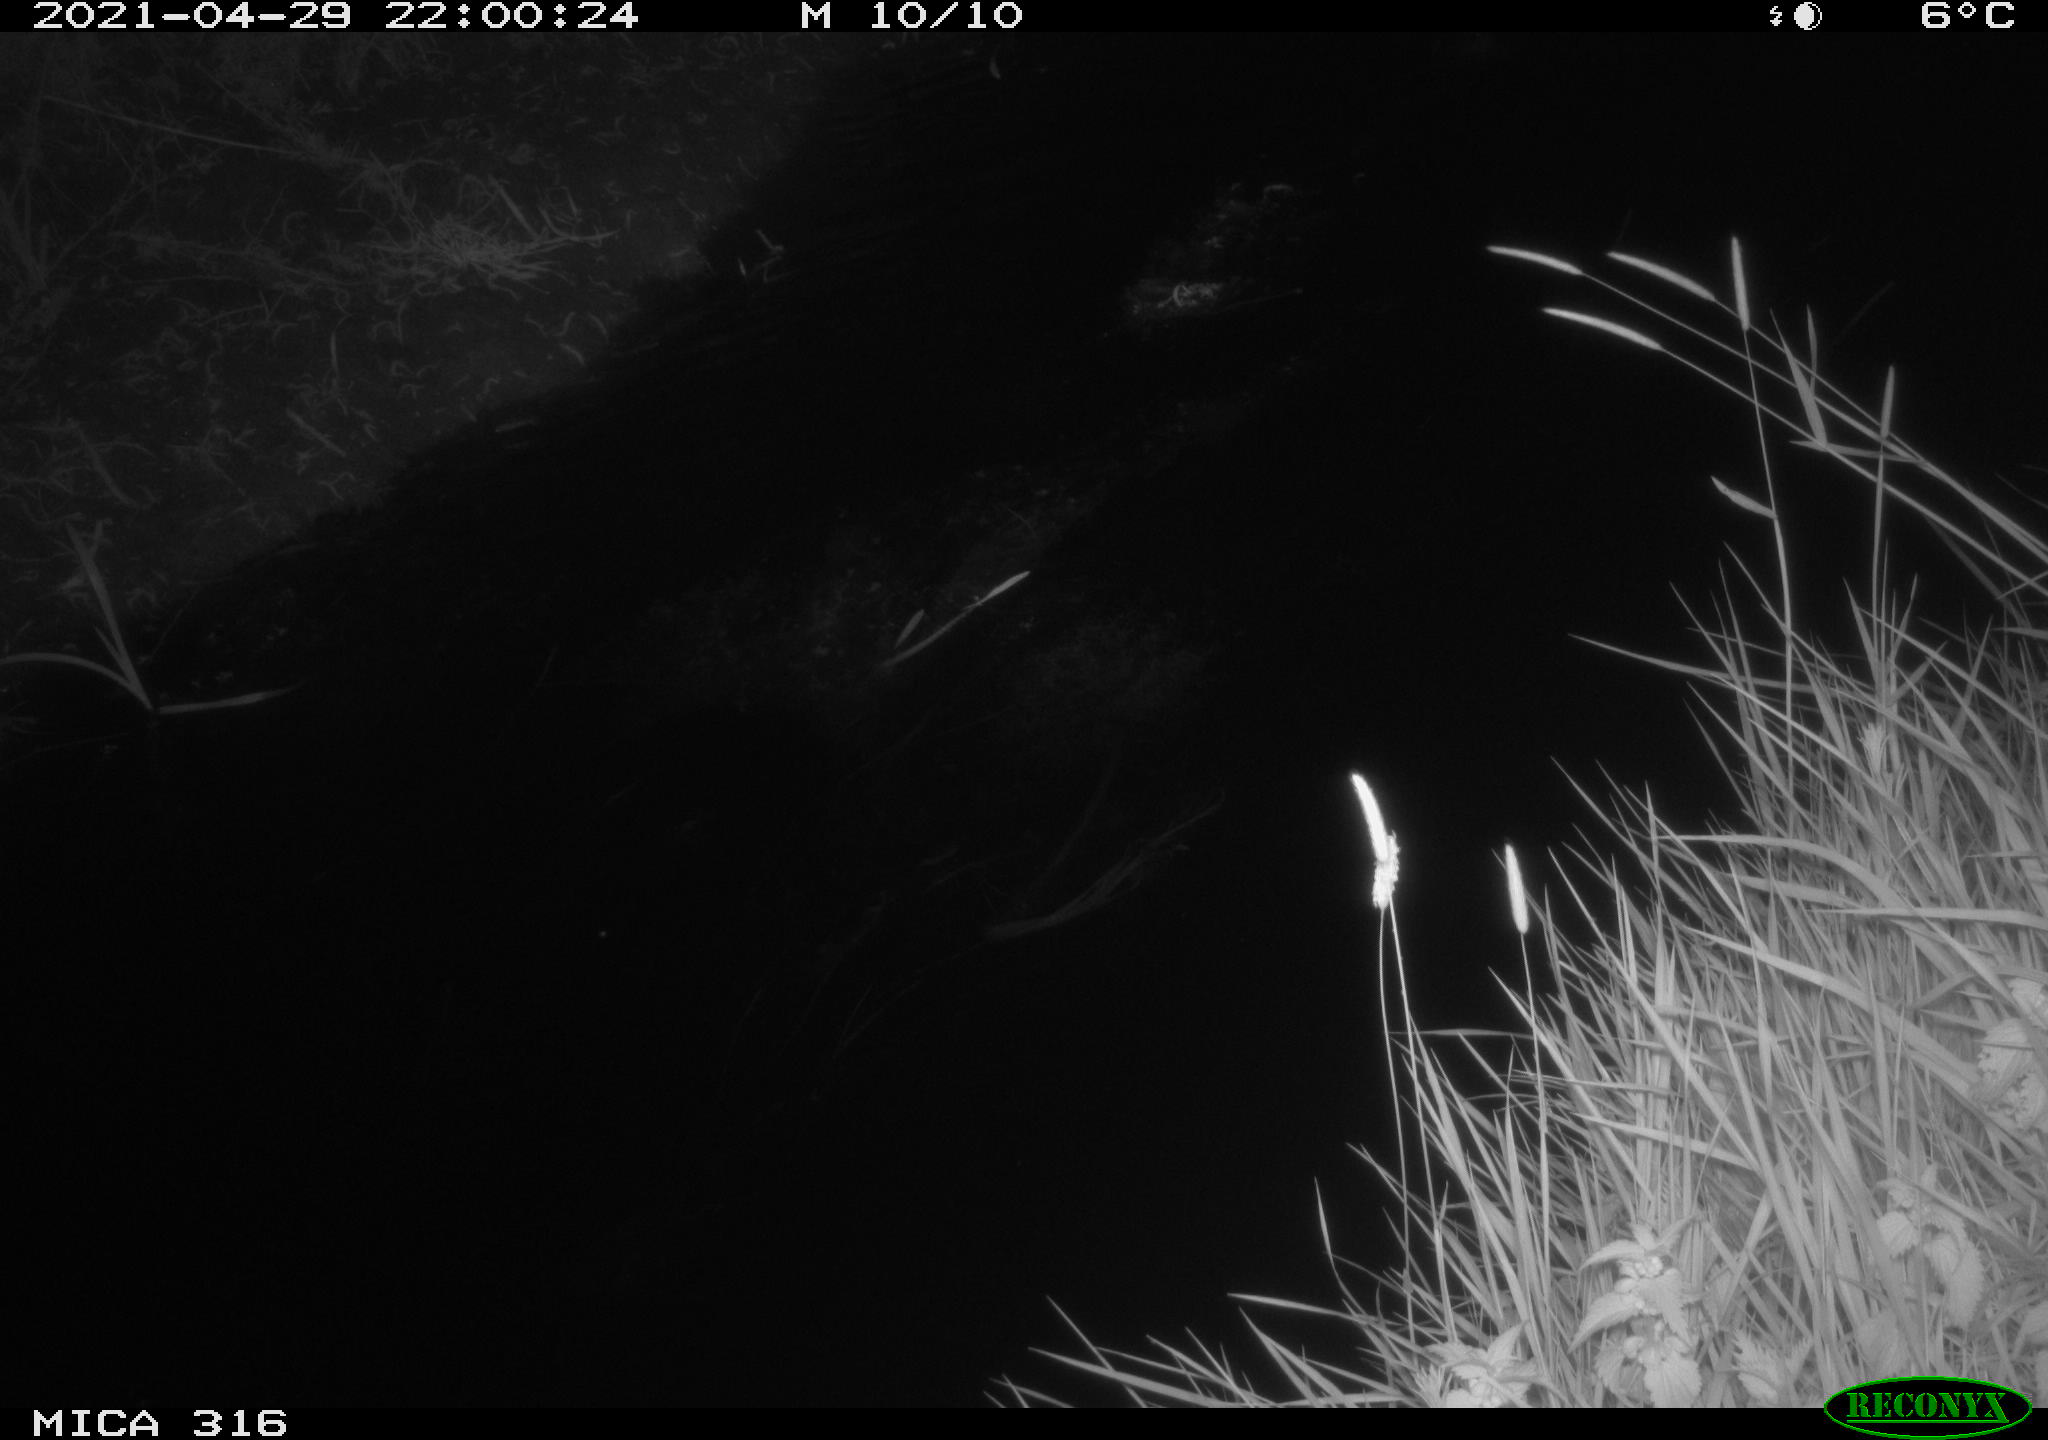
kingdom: Animalia
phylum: Chordata
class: Aves
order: Anseriformes
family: Anatidae
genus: Anas
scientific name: Anas platyrhynchos
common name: Mallard
